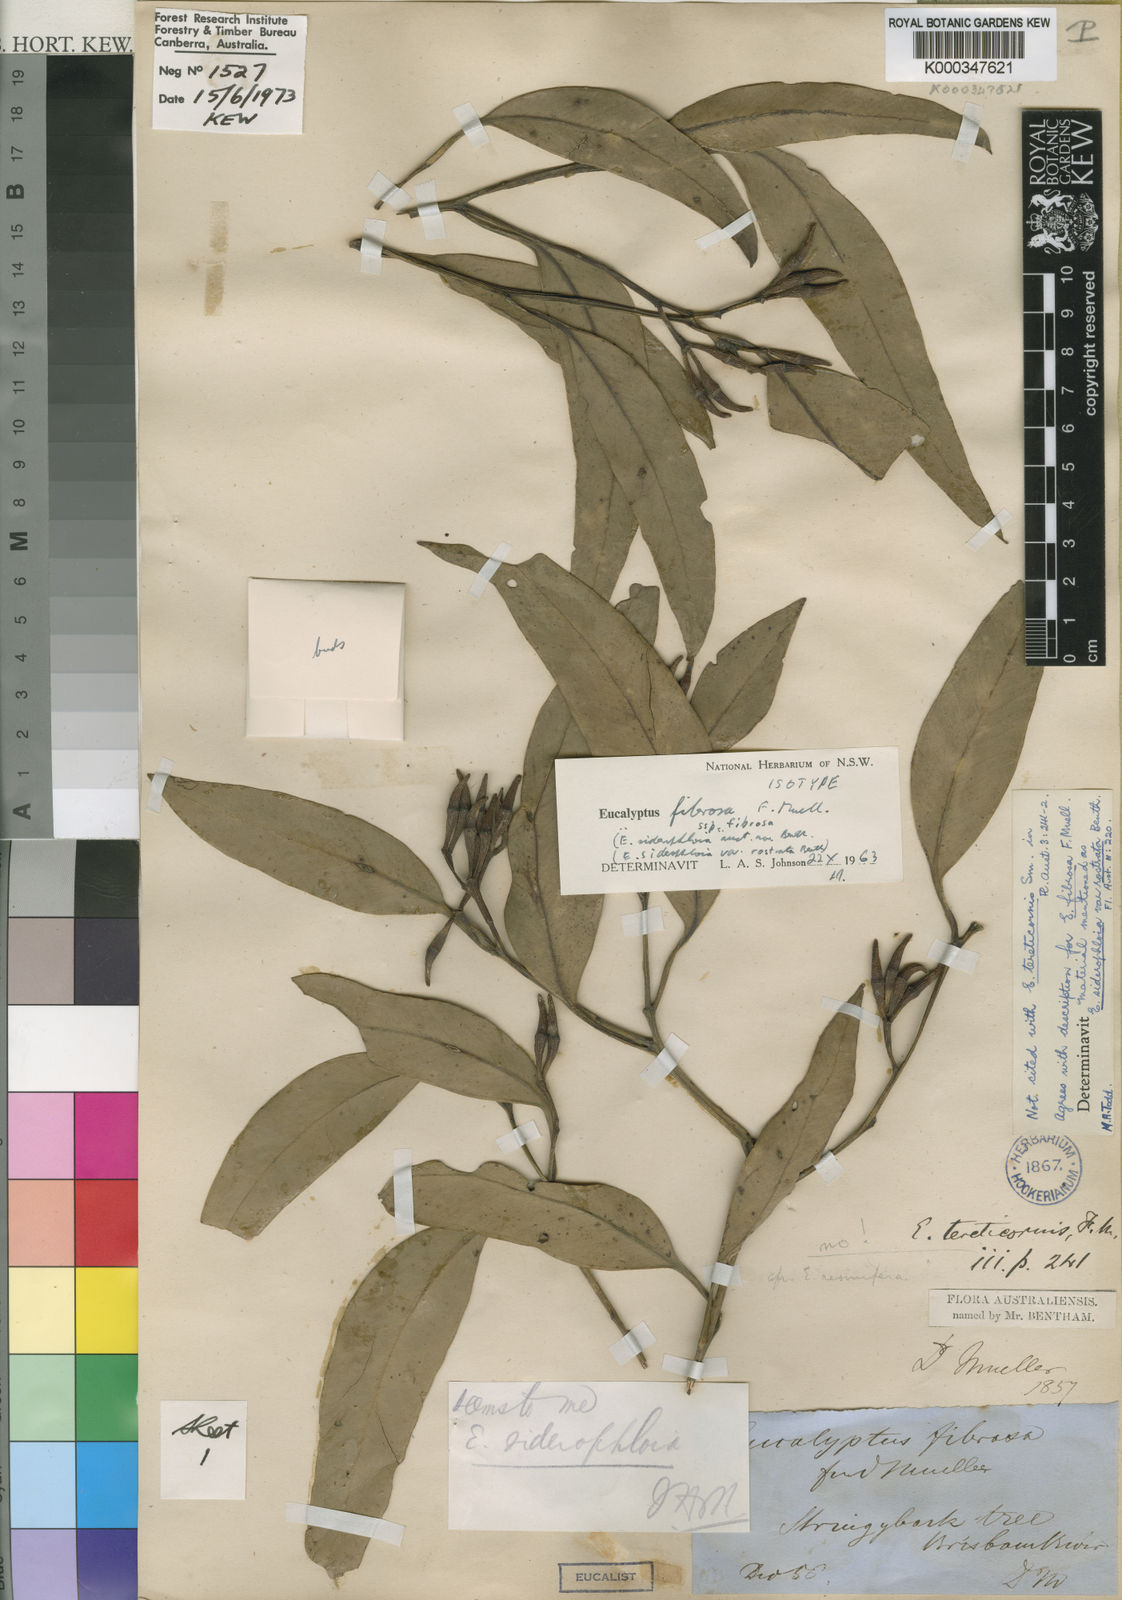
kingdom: Plantae
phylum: Tracheophyta
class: Magnoliopsida
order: Myrtales
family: Myrtaceae
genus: Eucalyptus
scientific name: Eucalyptus fibrosa
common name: Red ironbark
